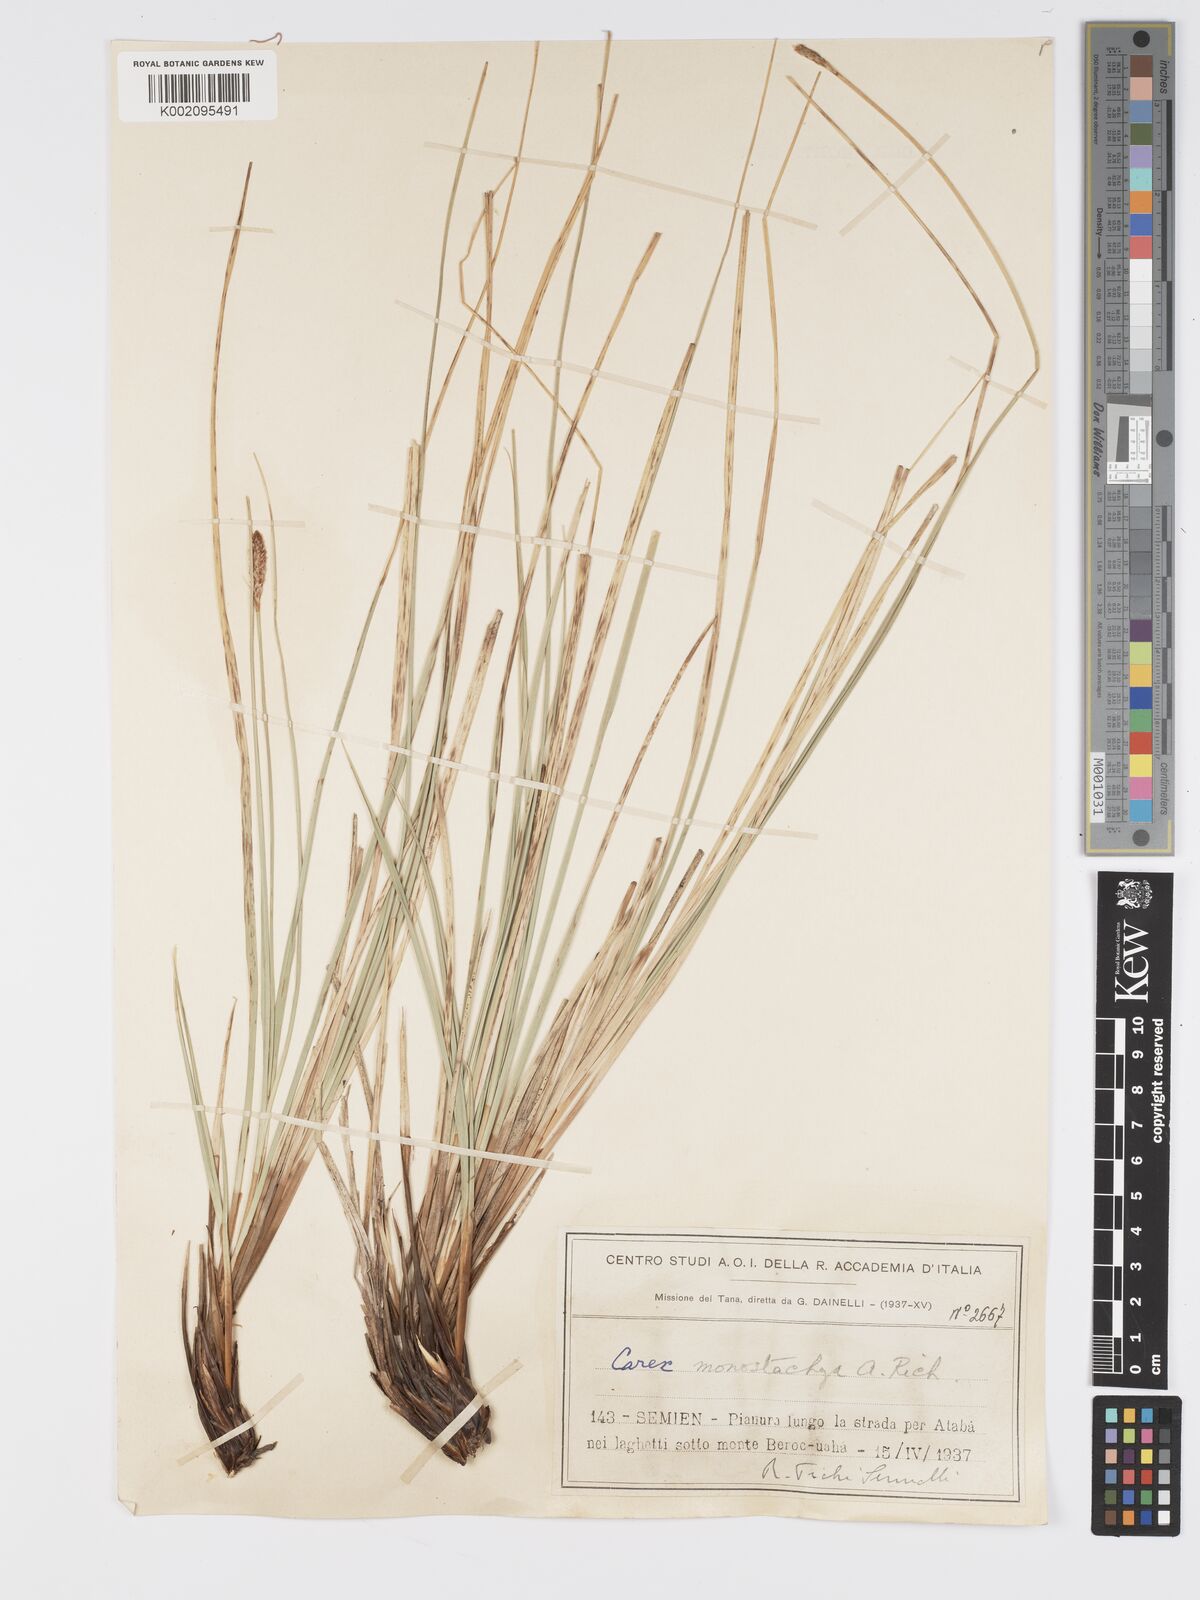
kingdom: Plantae
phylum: Tracheophyta
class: Liliopsida
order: Poales
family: Cyperaceae
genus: Carex
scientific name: Carex monostachya
